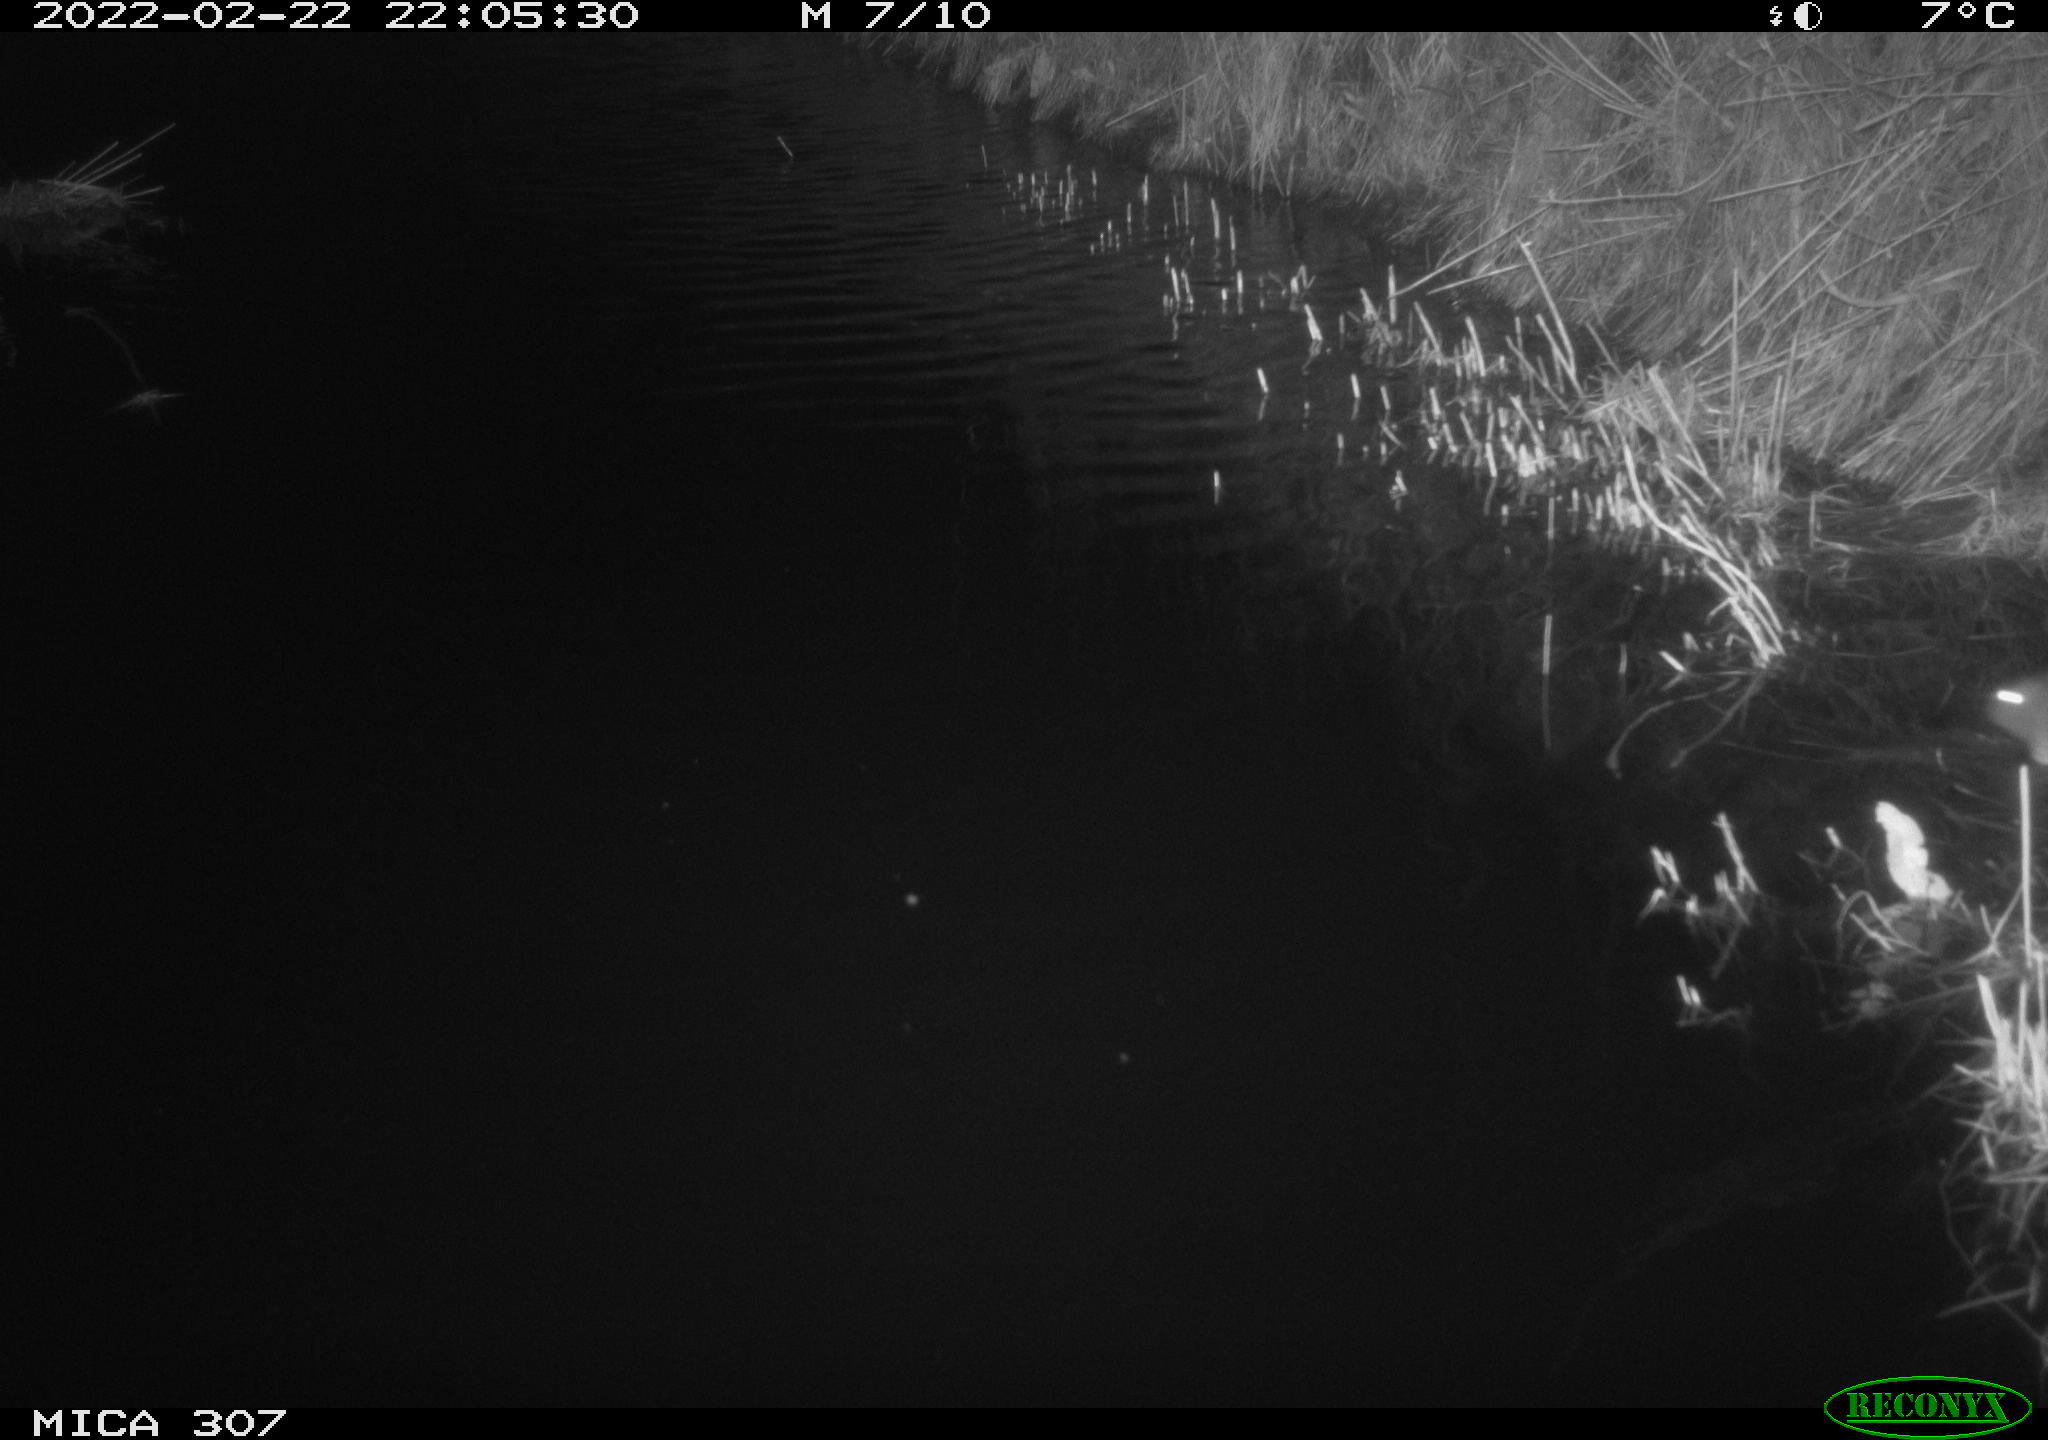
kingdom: Animalia
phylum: Chordata
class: Mammalia
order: Rodentia
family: Muridae
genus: Rattus
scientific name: Rattus norvegicus
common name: Brown rat
